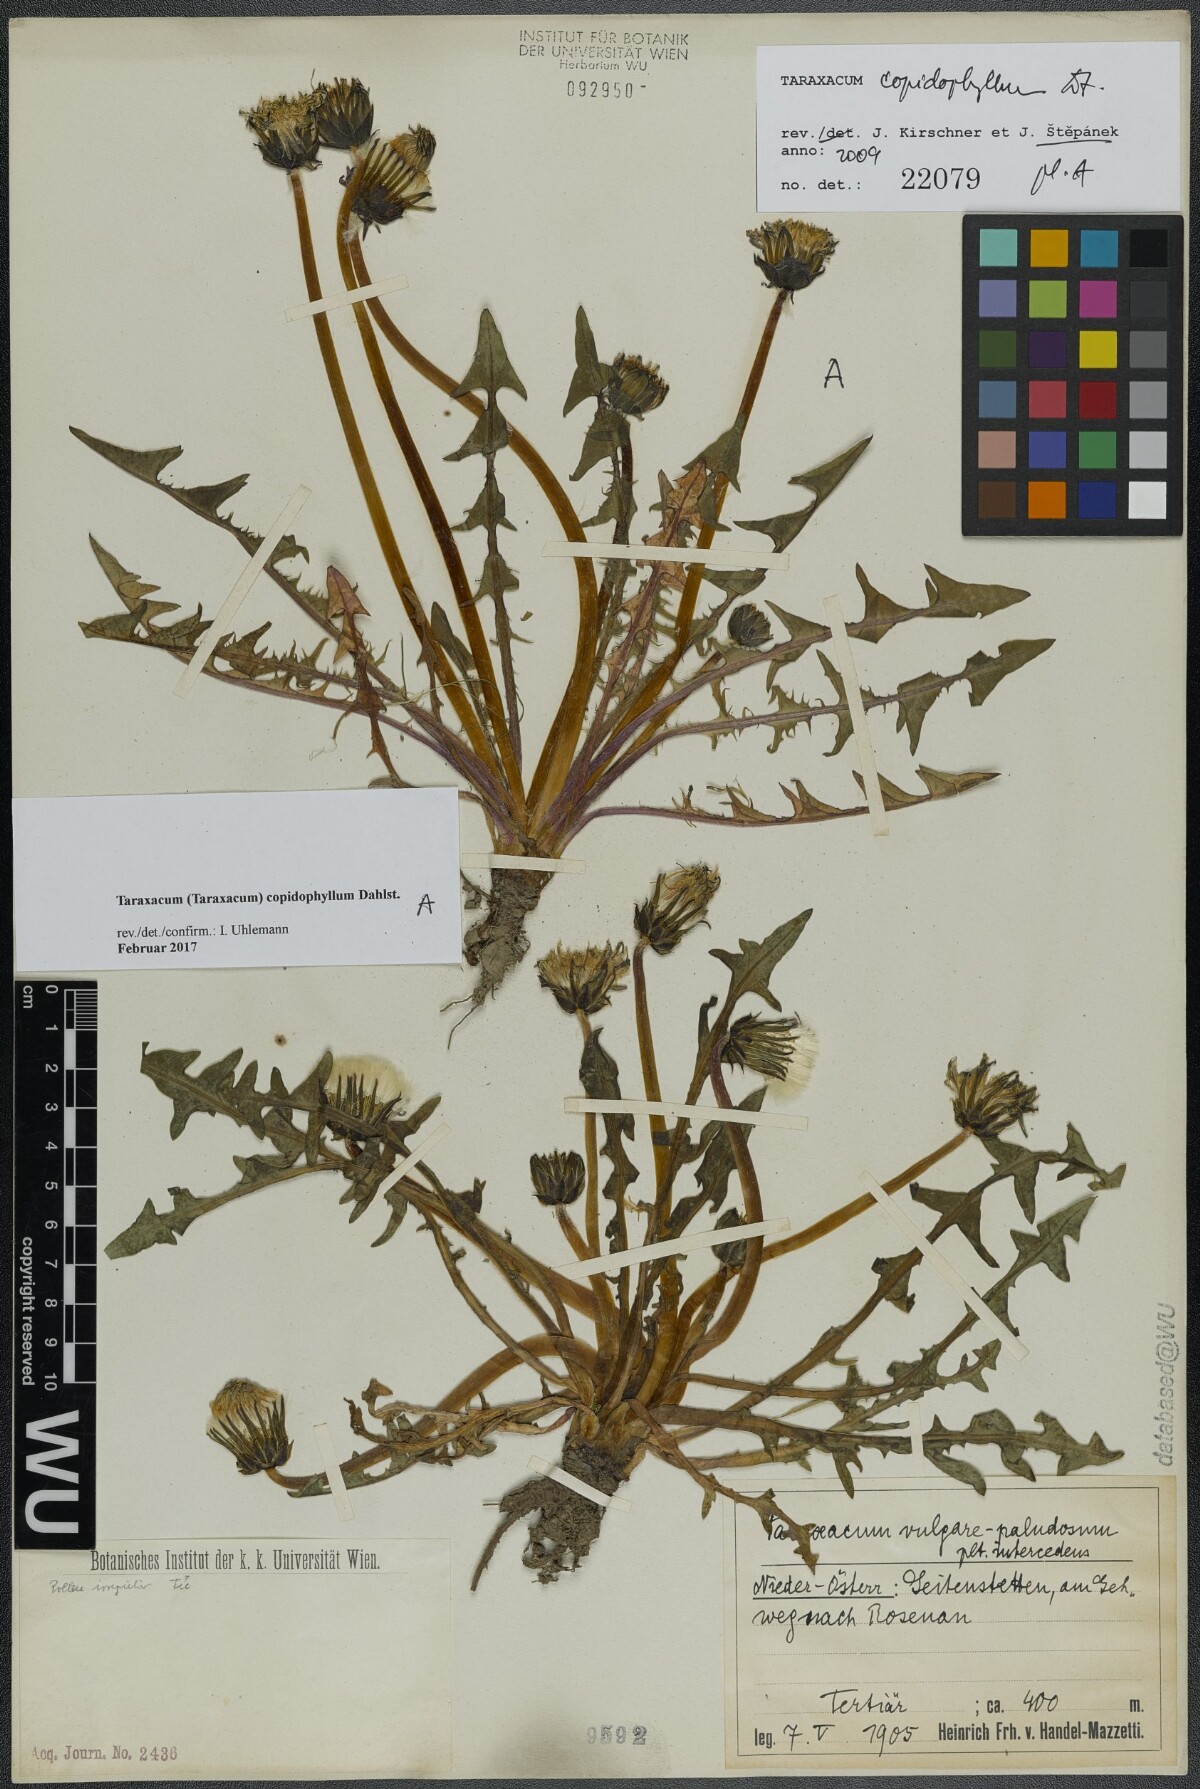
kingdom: Plantae
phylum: Tracheophyta
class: Magnoliopsida
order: Asterales
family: Asteraceae
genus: Taraxacum
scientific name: Taraxacum copidophyllum
